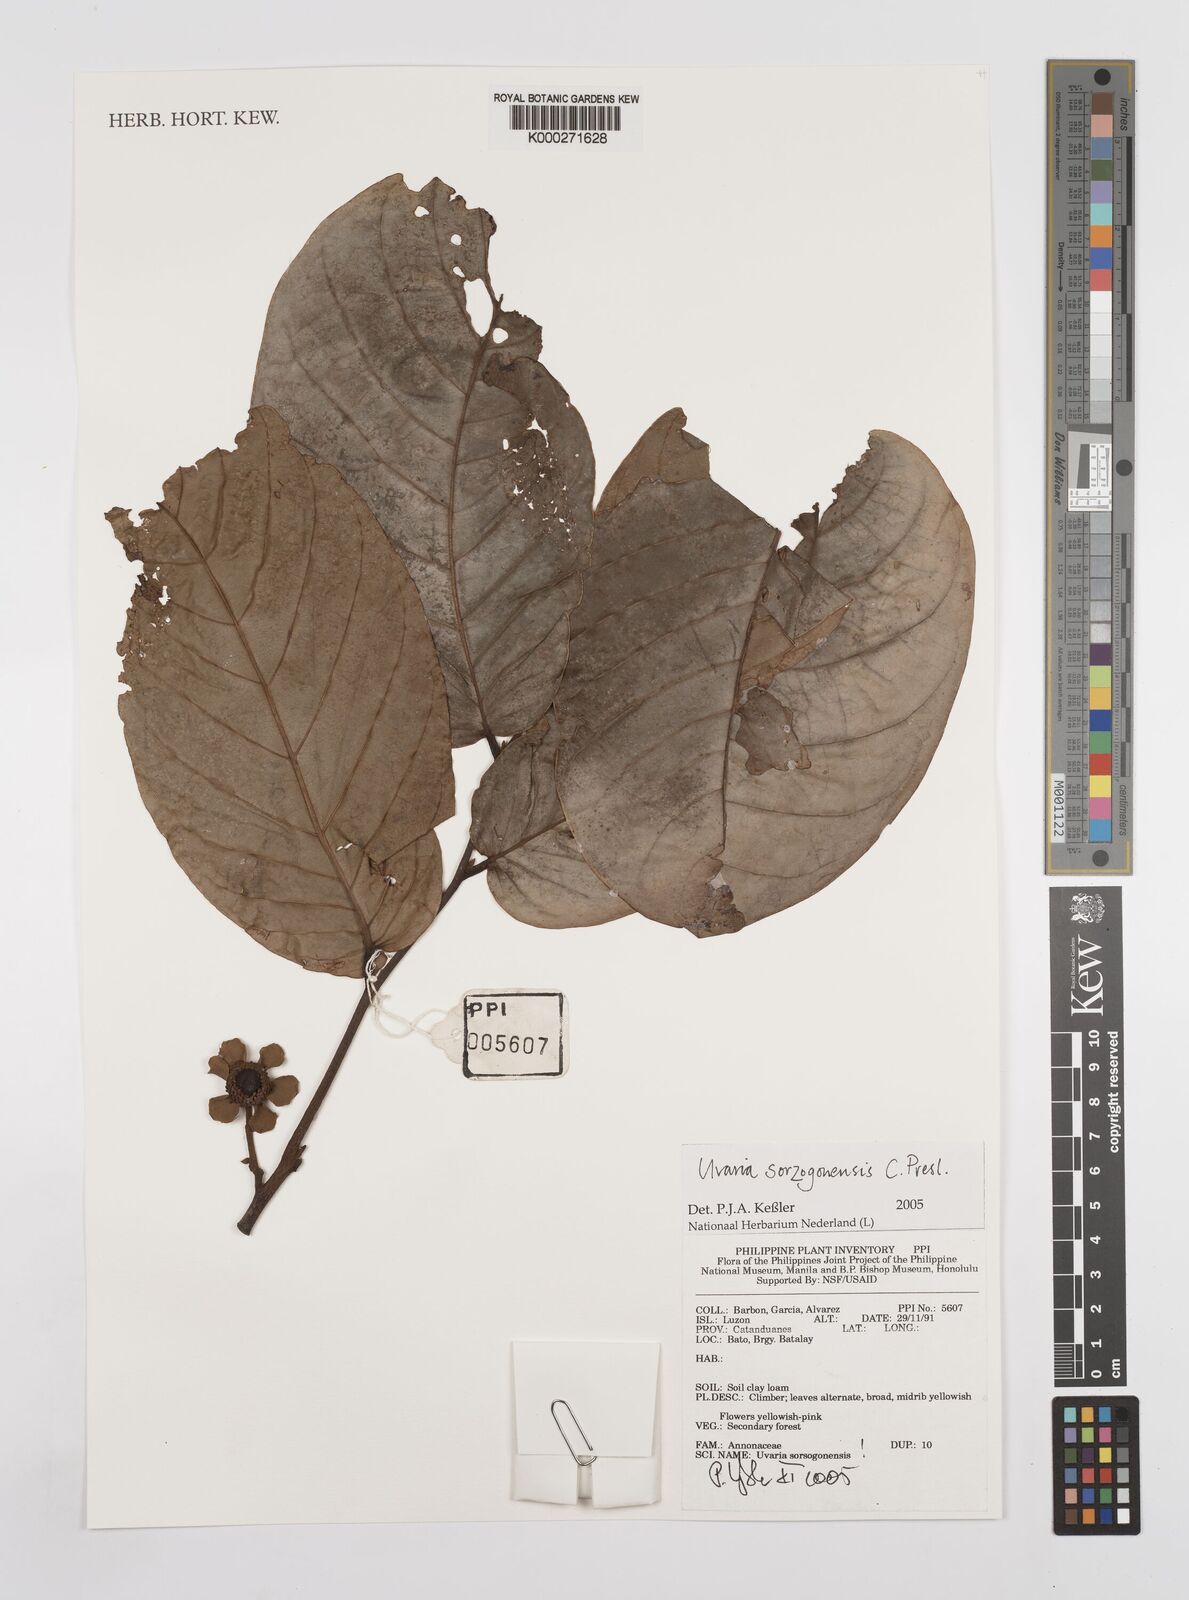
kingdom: Plantae
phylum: Tracheophyta
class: Magnoliopsida
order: Magnoliales
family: Annonaceae
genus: Uvaria
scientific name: Uvaria
